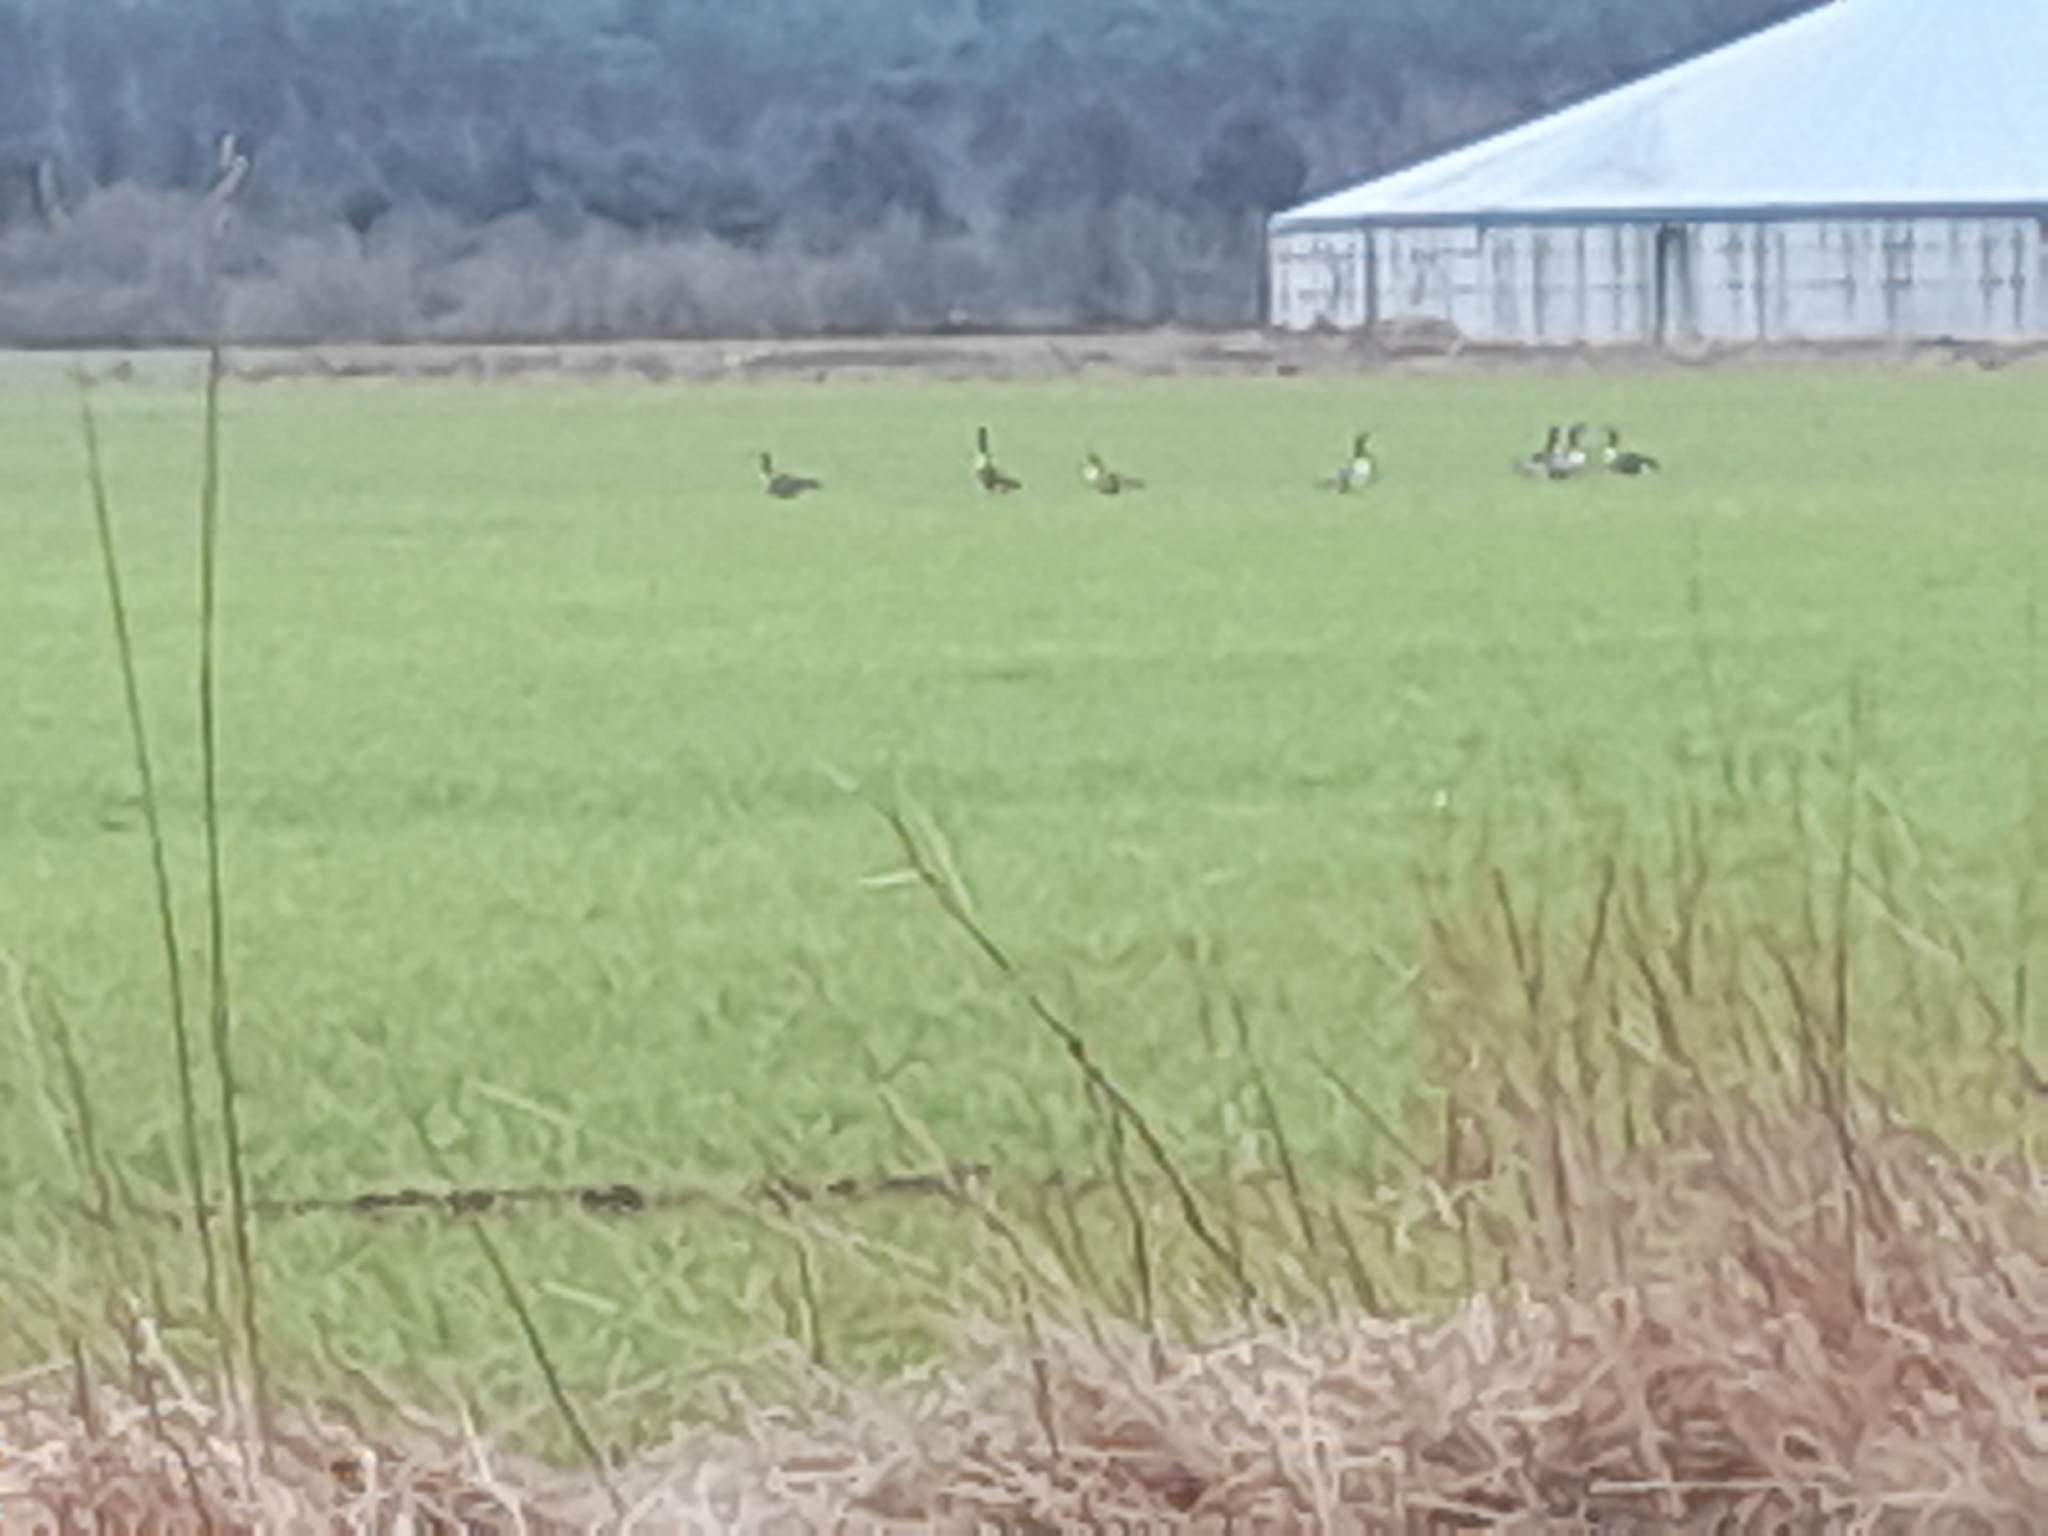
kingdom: Animalia
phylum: Chordata
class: Aves
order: Anseriformes
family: Anatidae
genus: Branta
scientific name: Branta canadensis
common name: Canadagås
